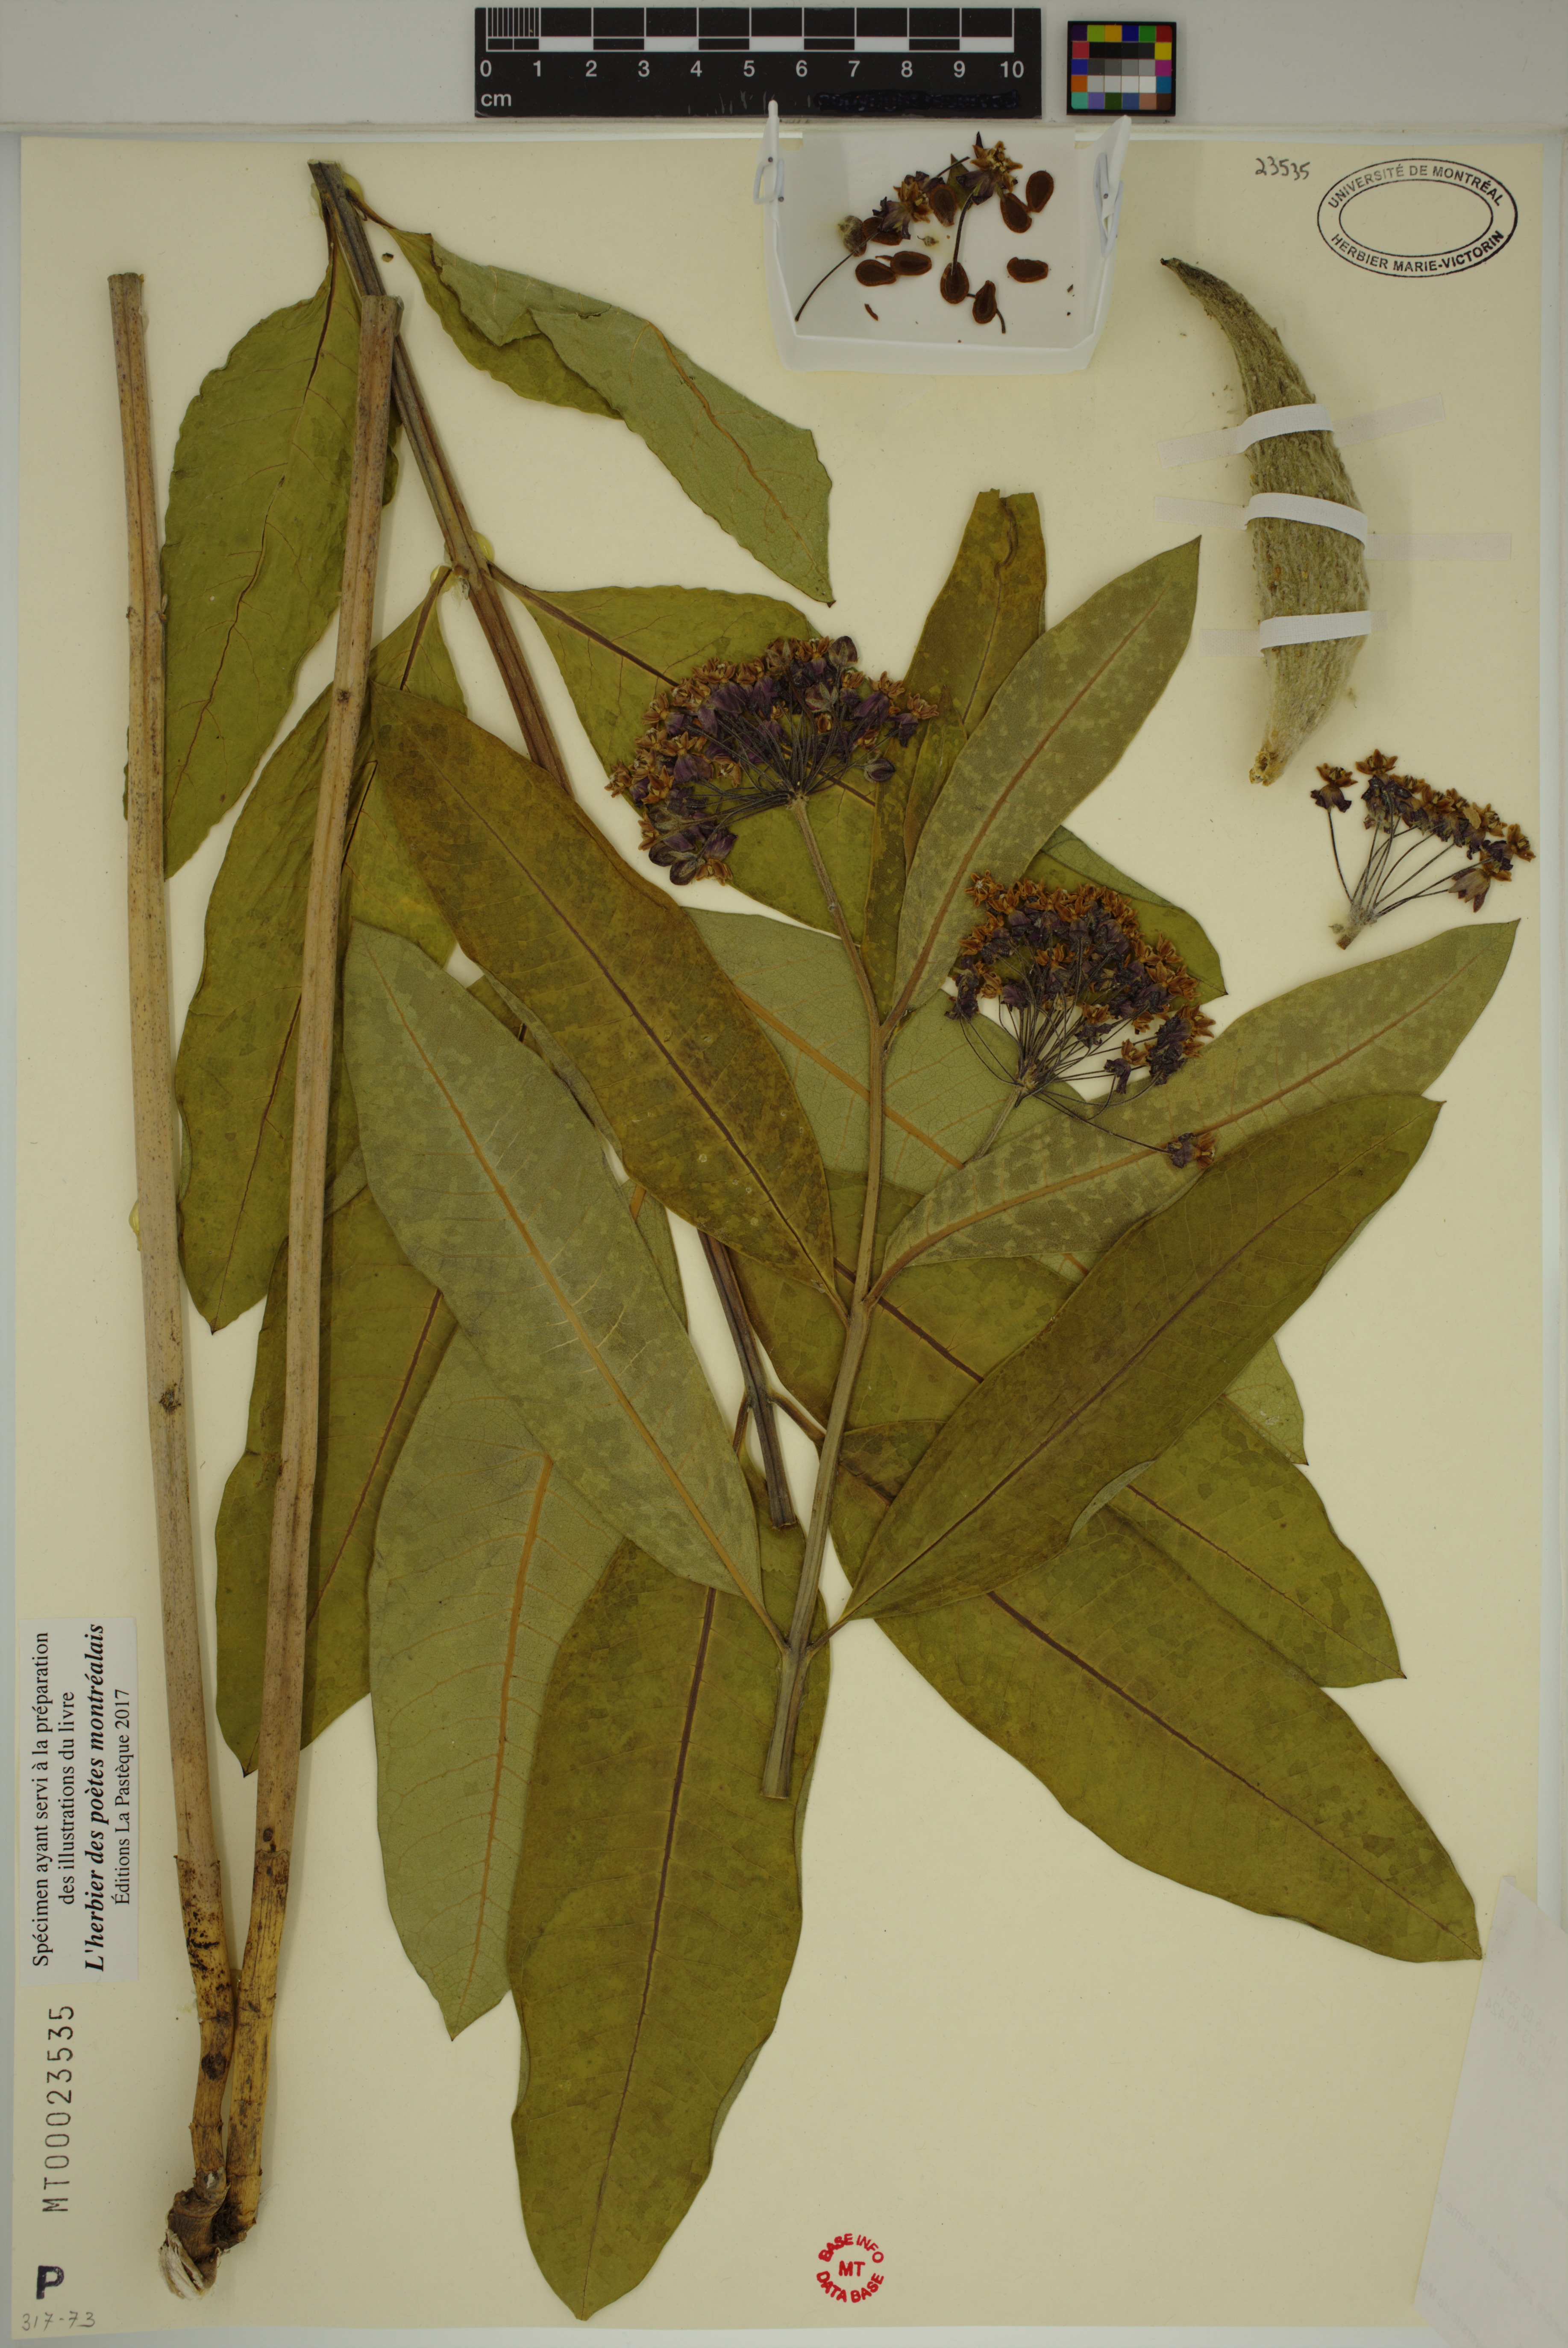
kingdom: Plantae
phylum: Tracheophyta
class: Magnoliopsida
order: Gentianales
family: Apocynaceae
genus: Asclepias
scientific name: Asclepias syriaca
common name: Common milkweed
